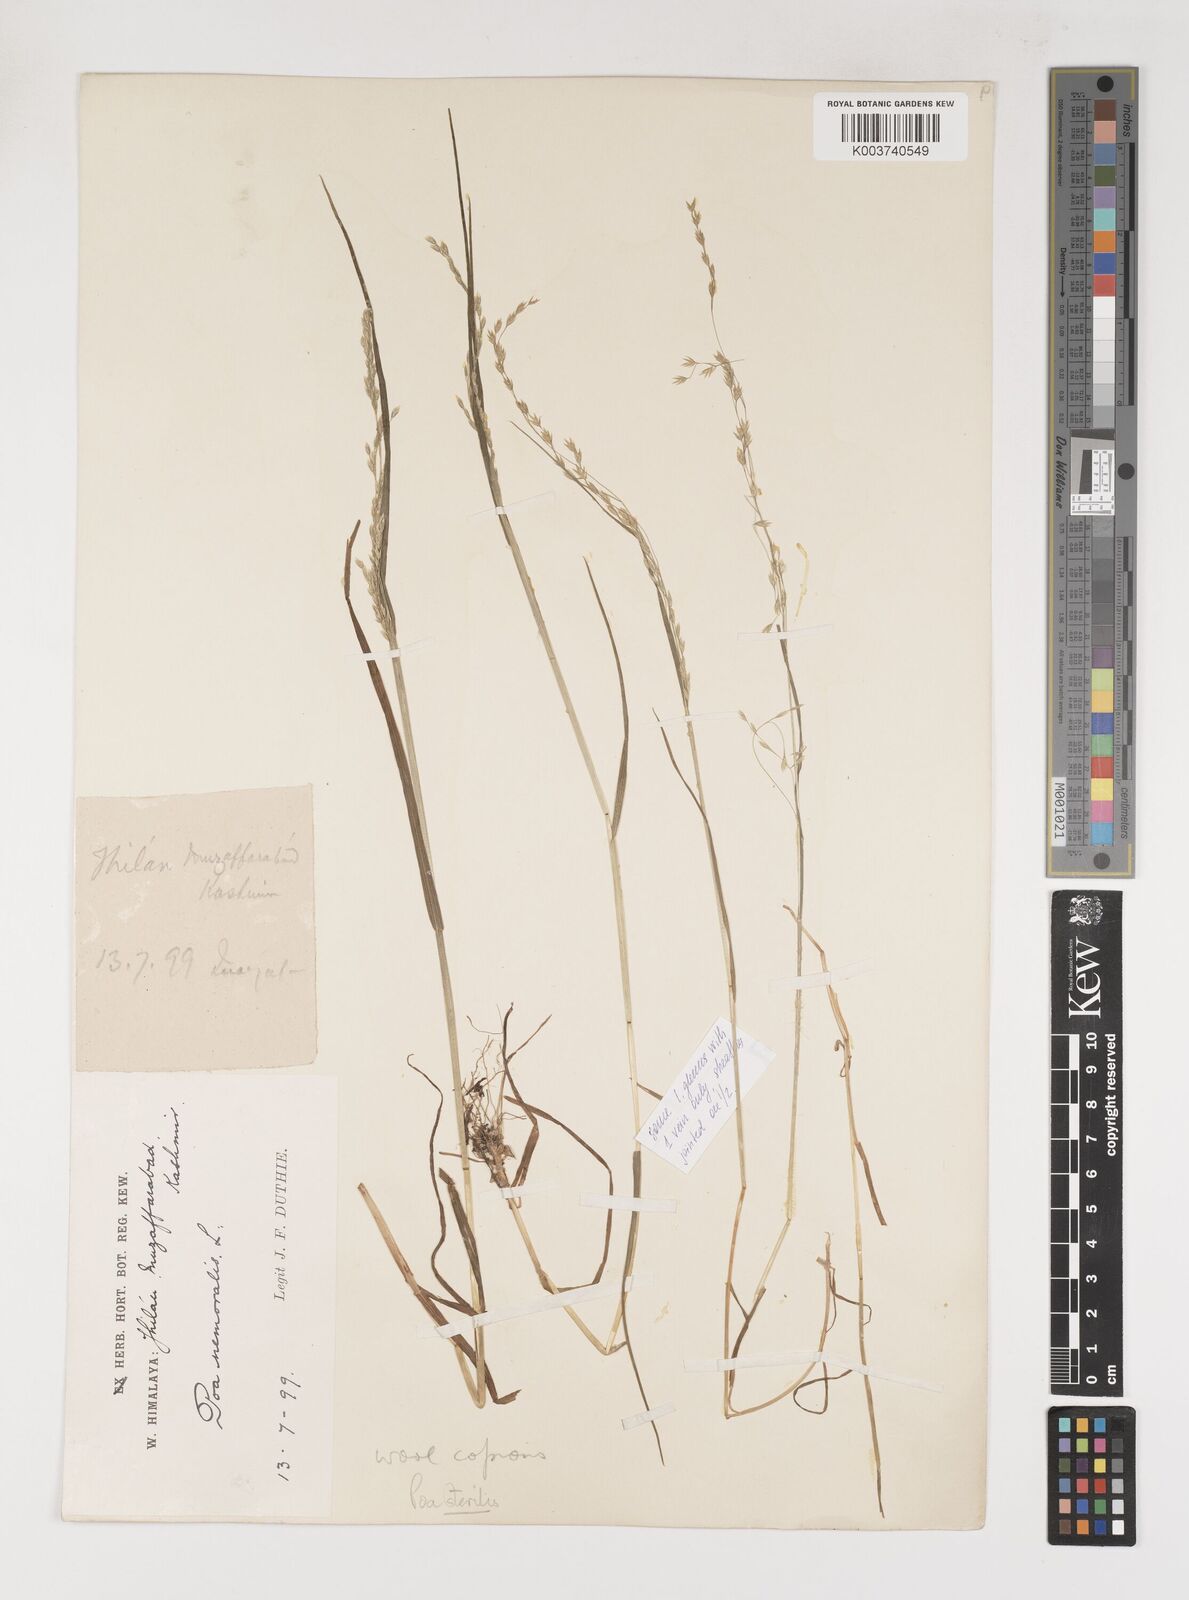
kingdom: Plantae
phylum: Tracheophyta
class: Liliopsida
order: Poales
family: Poaceae
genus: Poa
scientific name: Poa sterilis
